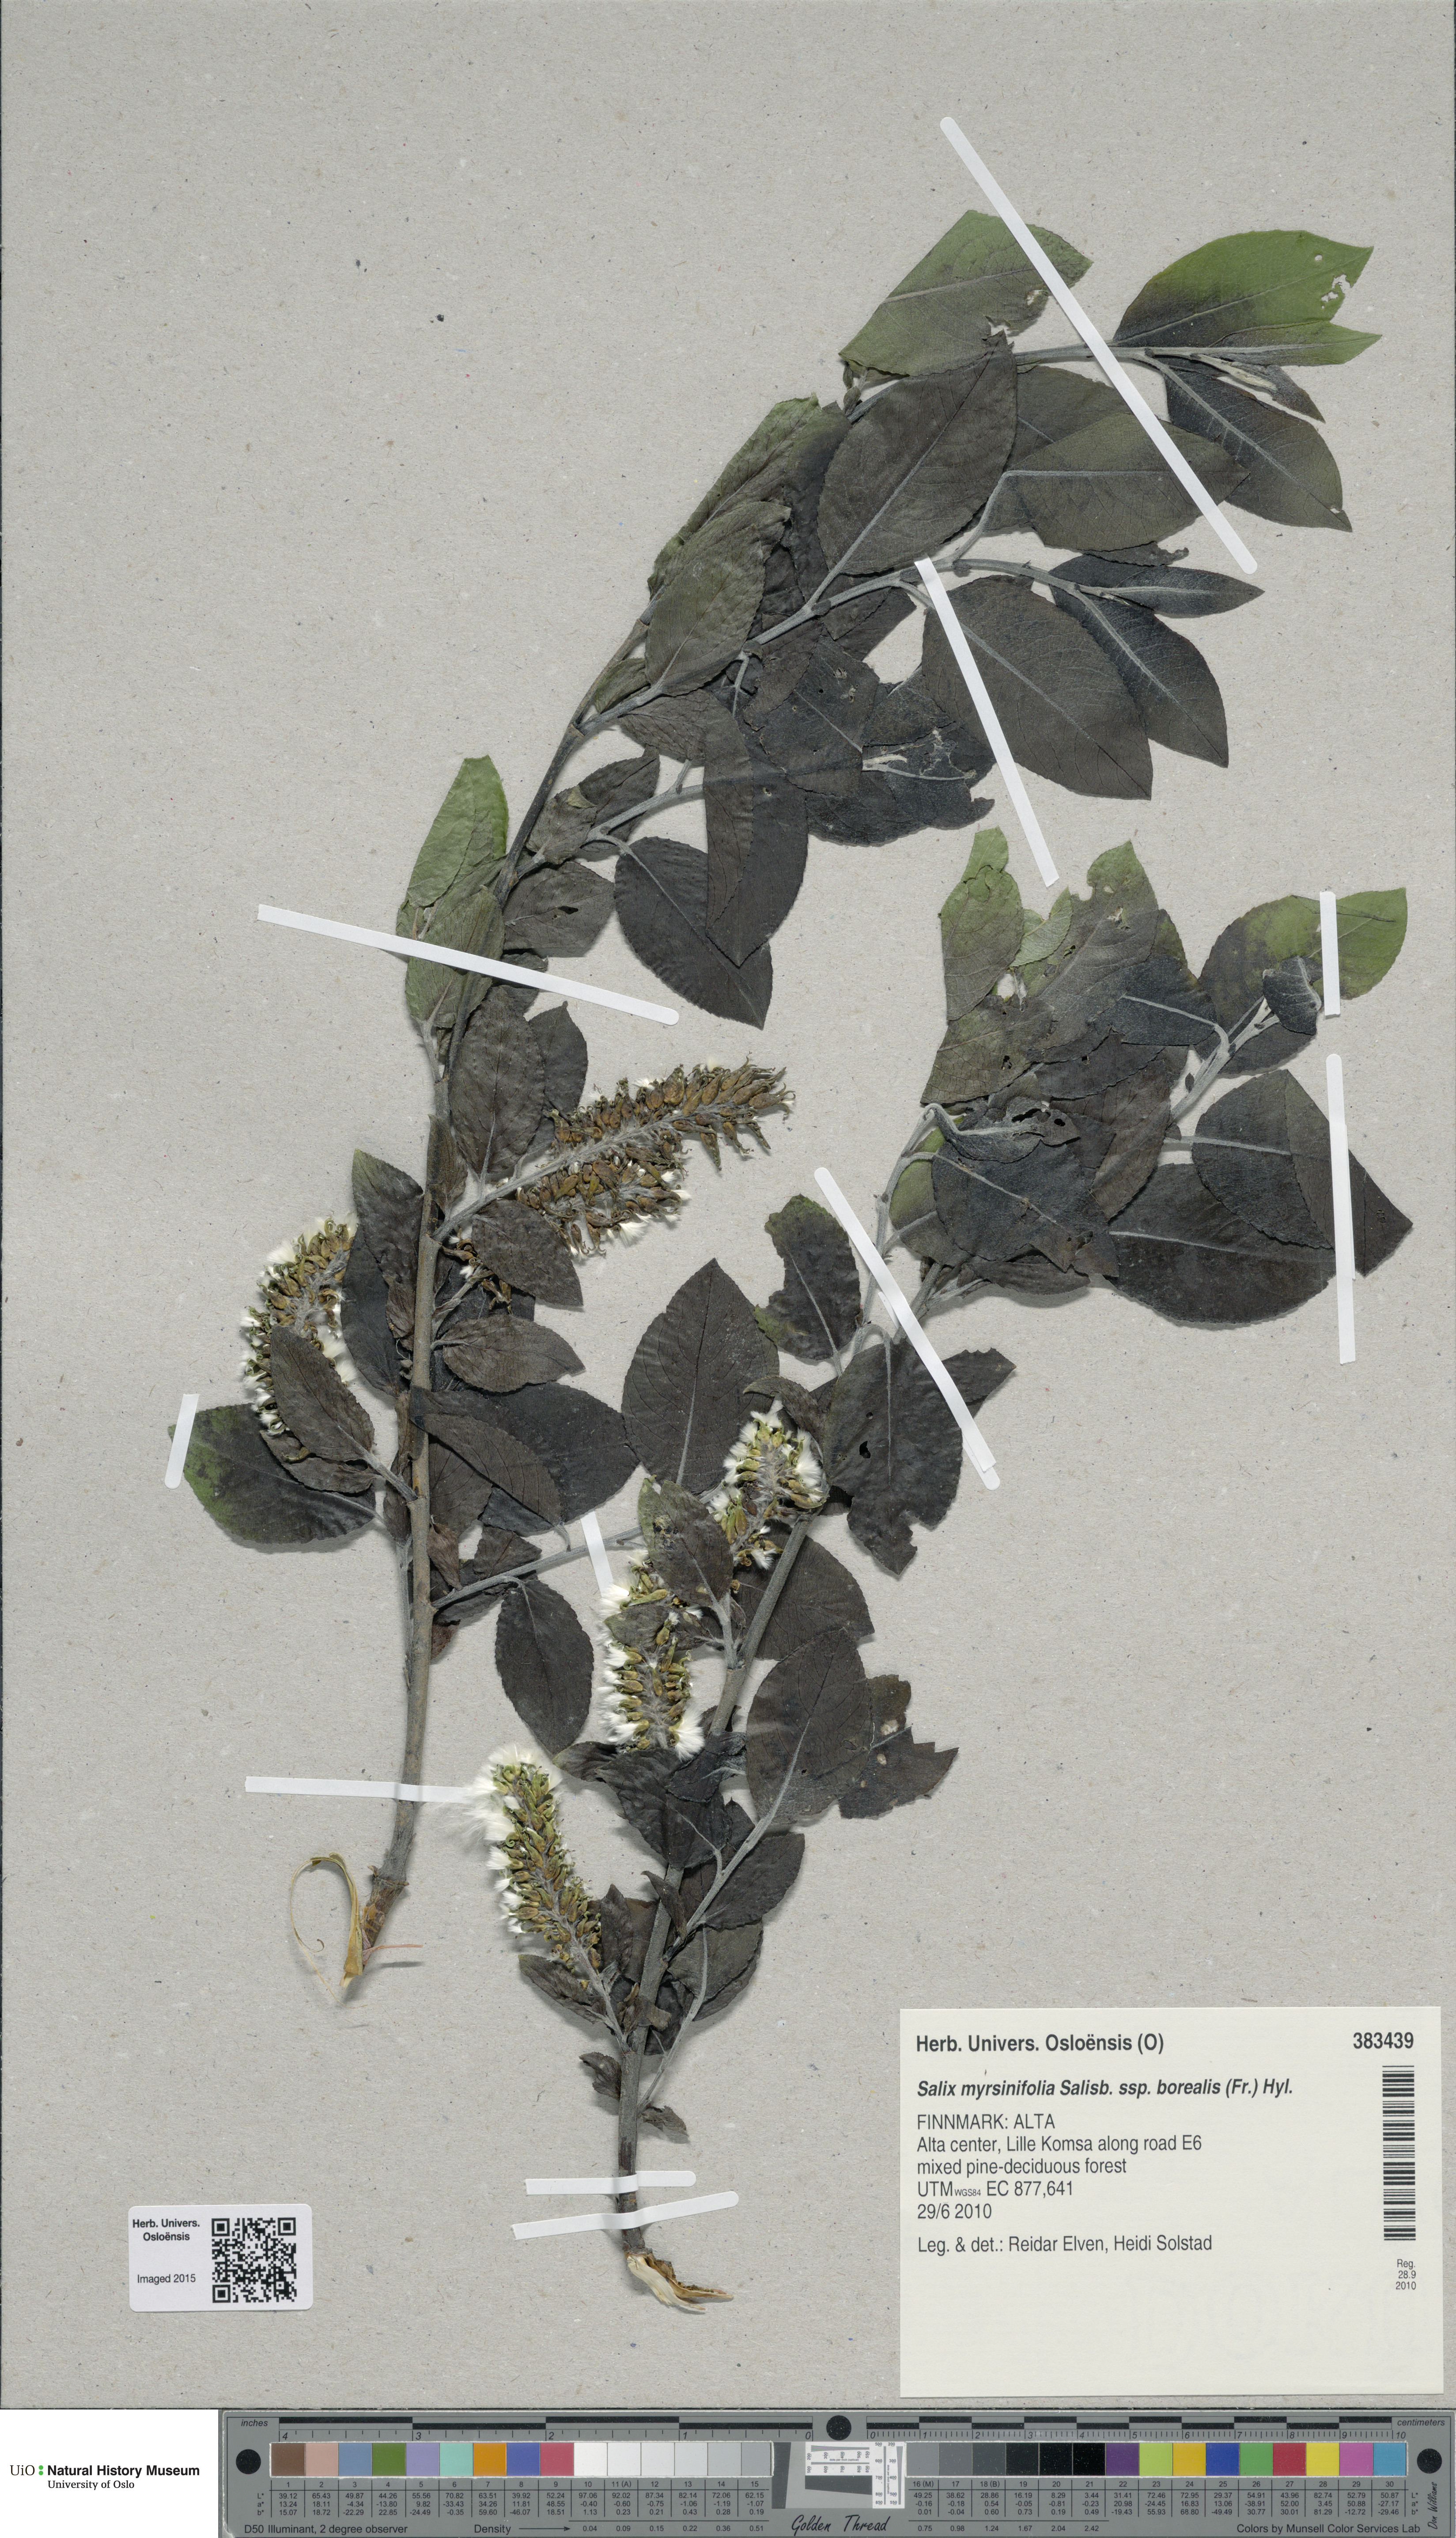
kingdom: Plantae
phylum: Tracheophyta
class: Magnoliopsida
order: Malpighiales
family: Salicaceae
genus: Salix
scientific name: Salix myrsinifolia
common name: Dark-leaved willow
